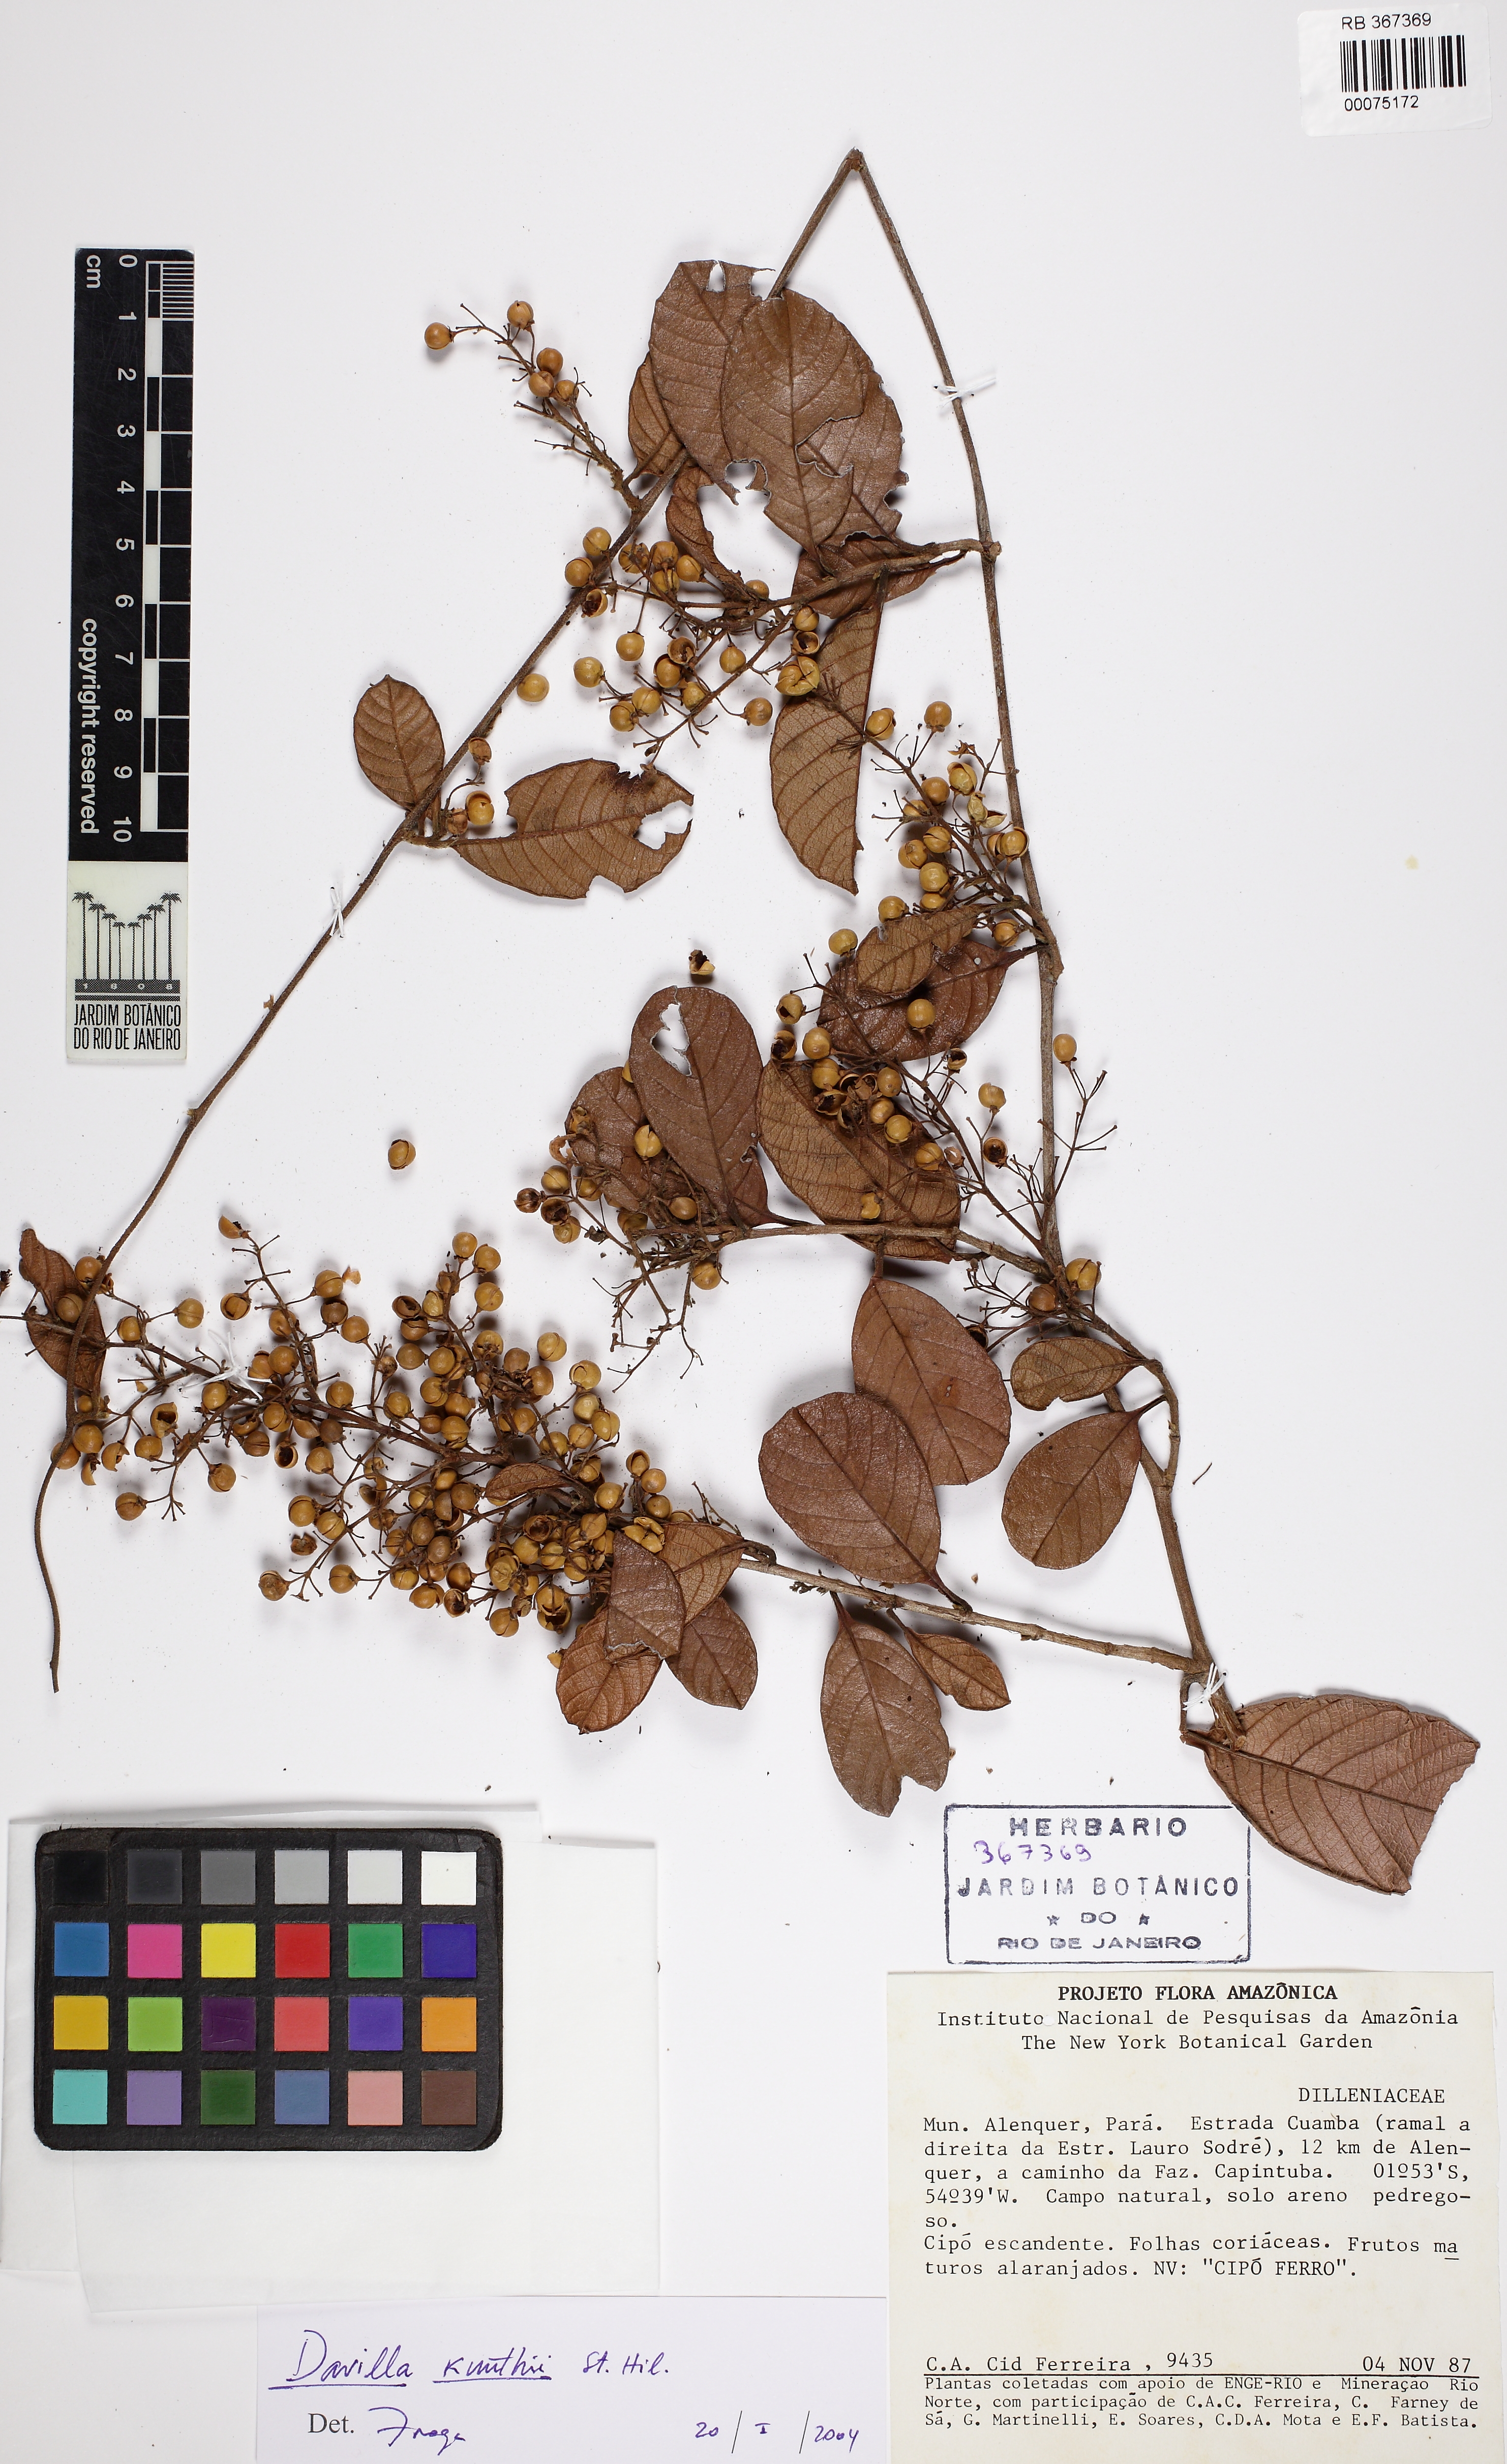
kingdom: Plantae
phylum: Tracheophyta
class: Magnoliopsida
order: Dilleniales
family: Dilleniaceae
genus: Davilla
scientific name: Davilla kunthii
